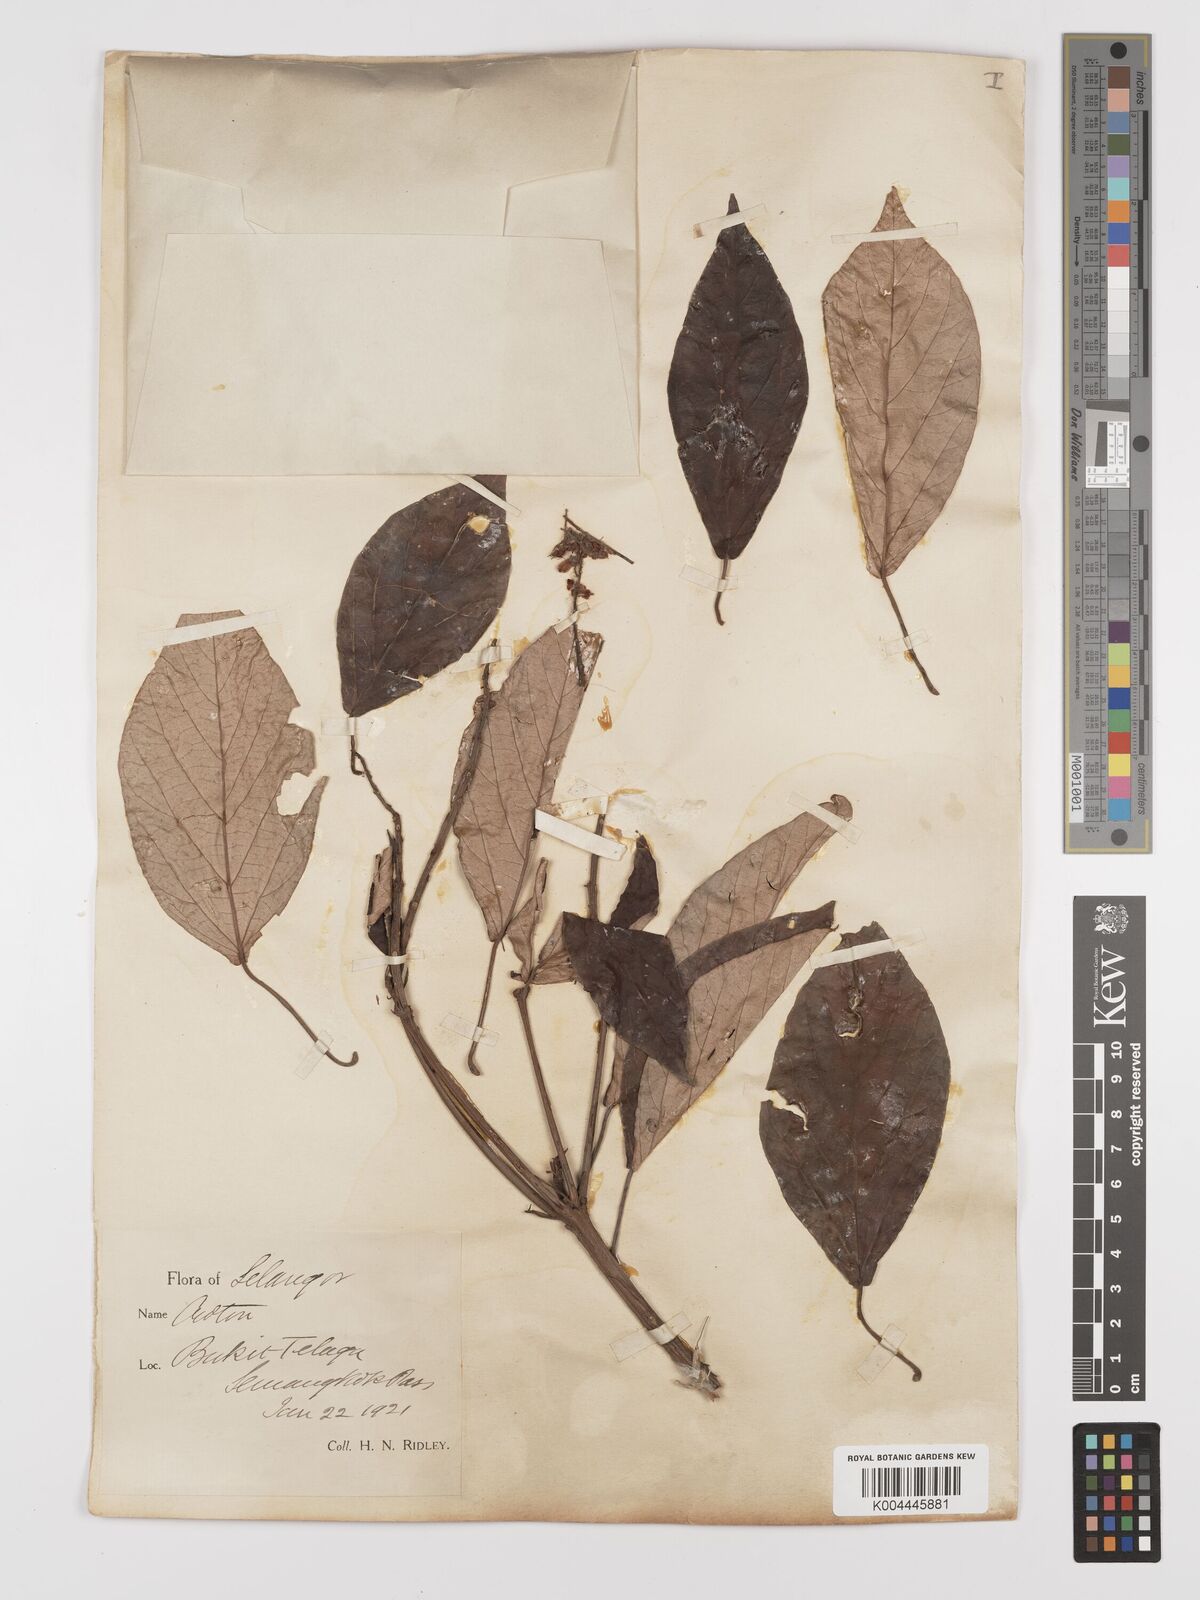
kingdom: Plantae
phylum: Tracheophyta
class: Magnoliopsida
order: Malpighiales
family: Euphorbiaceae
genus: Croton
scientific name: Croton argyratus
